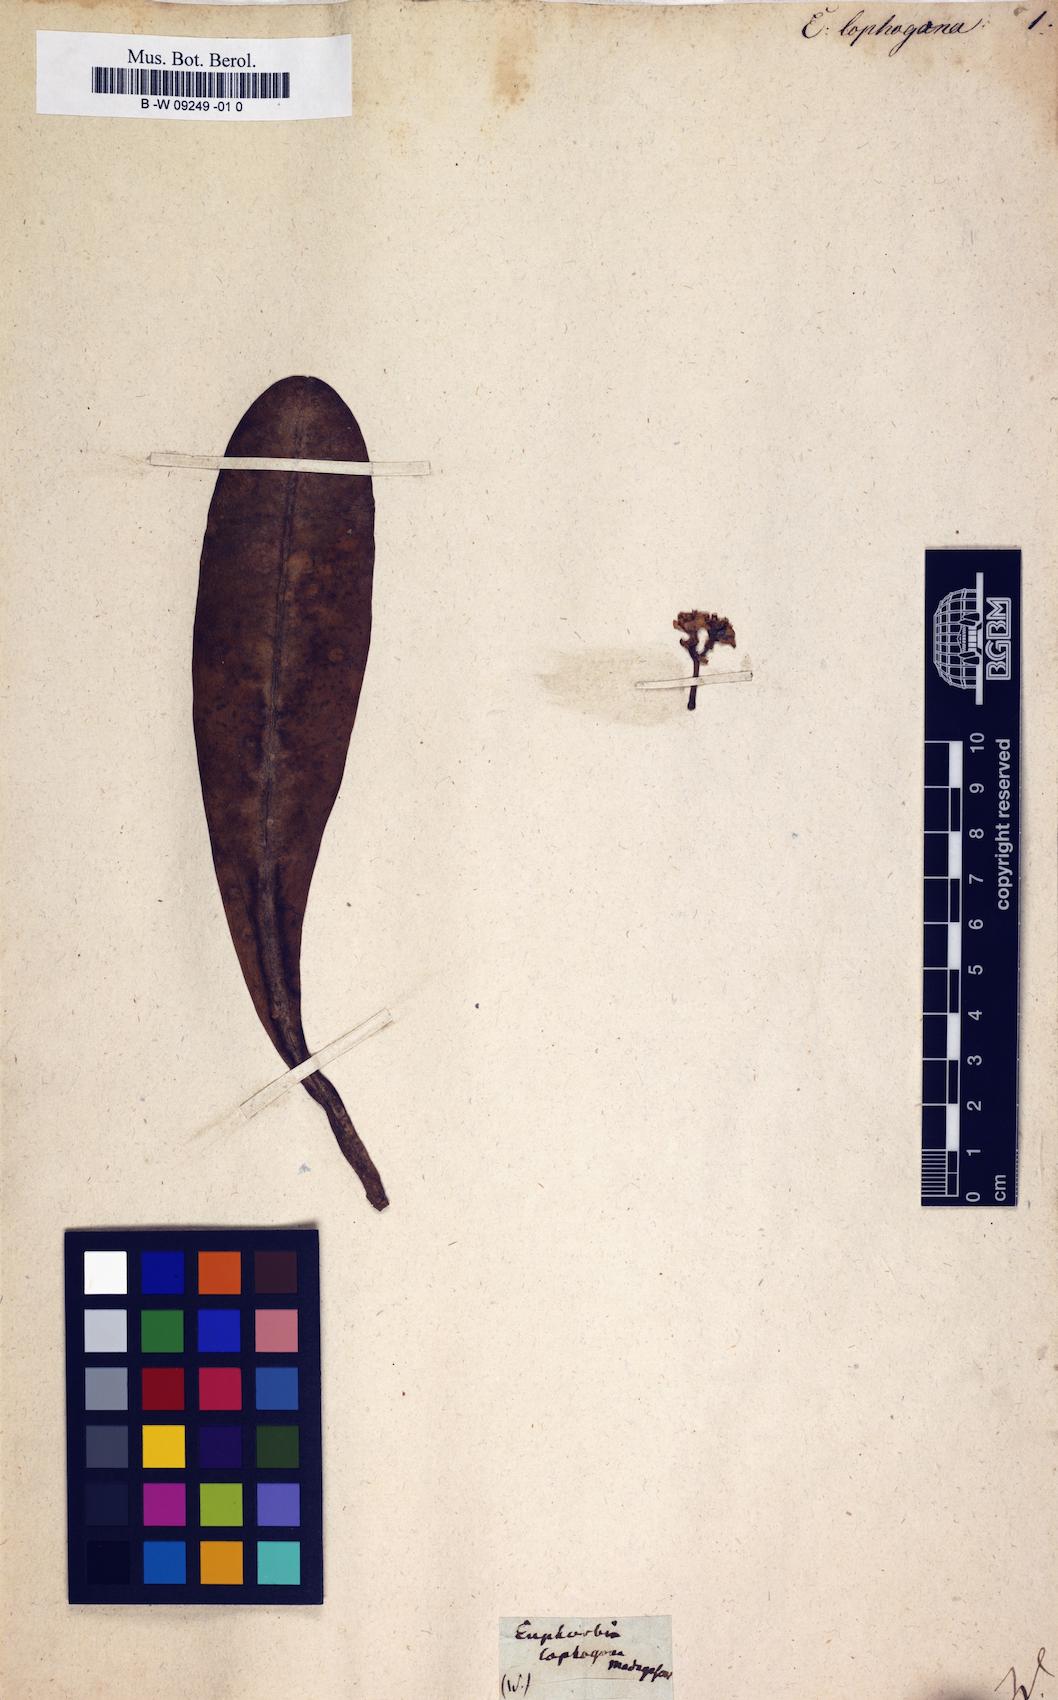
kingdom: Plantae
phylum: Tracheophyta
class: Magnoliopsida
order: Malpighiales
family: Euphorbiaceae
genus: Euphorbia
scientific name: Euphorbia lophogona
